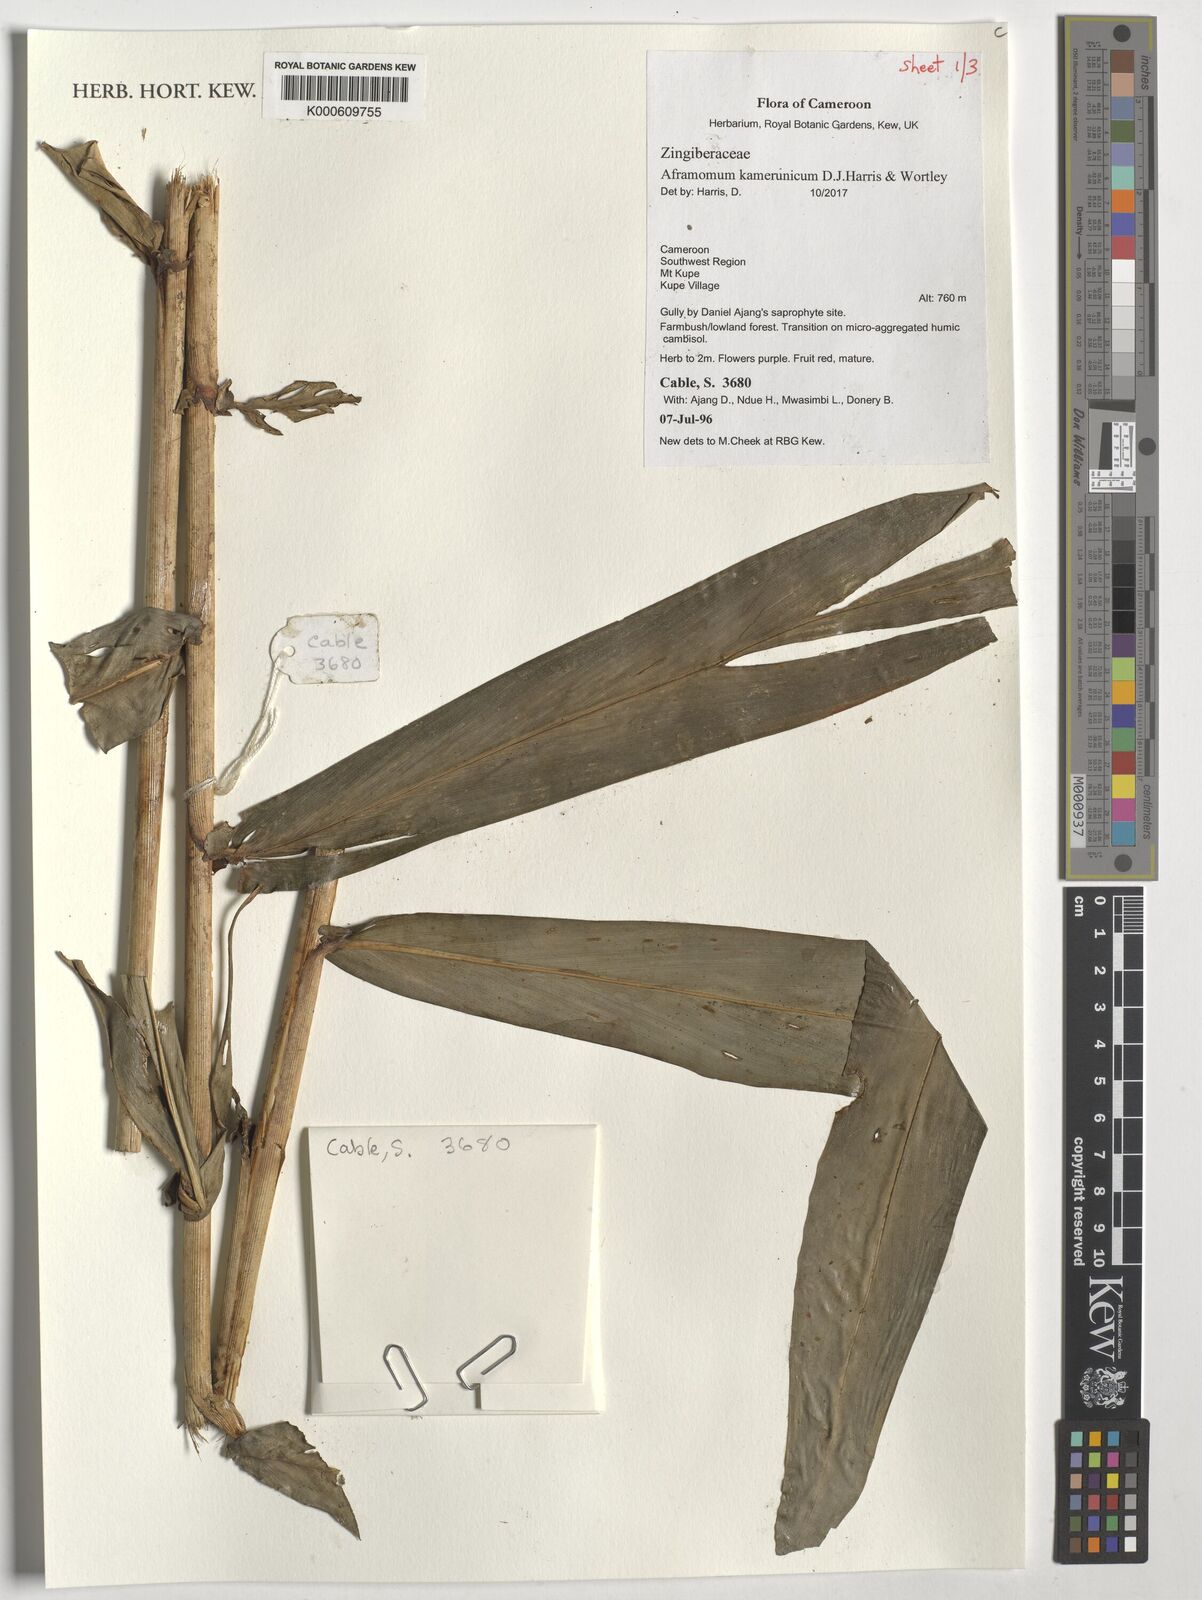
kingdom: Plantae
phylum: Tracheophyta
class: Liliopsida
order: Zingiberales
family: Zingiberaceae
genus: Aframomum
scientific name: Aframomum kamerunicum
